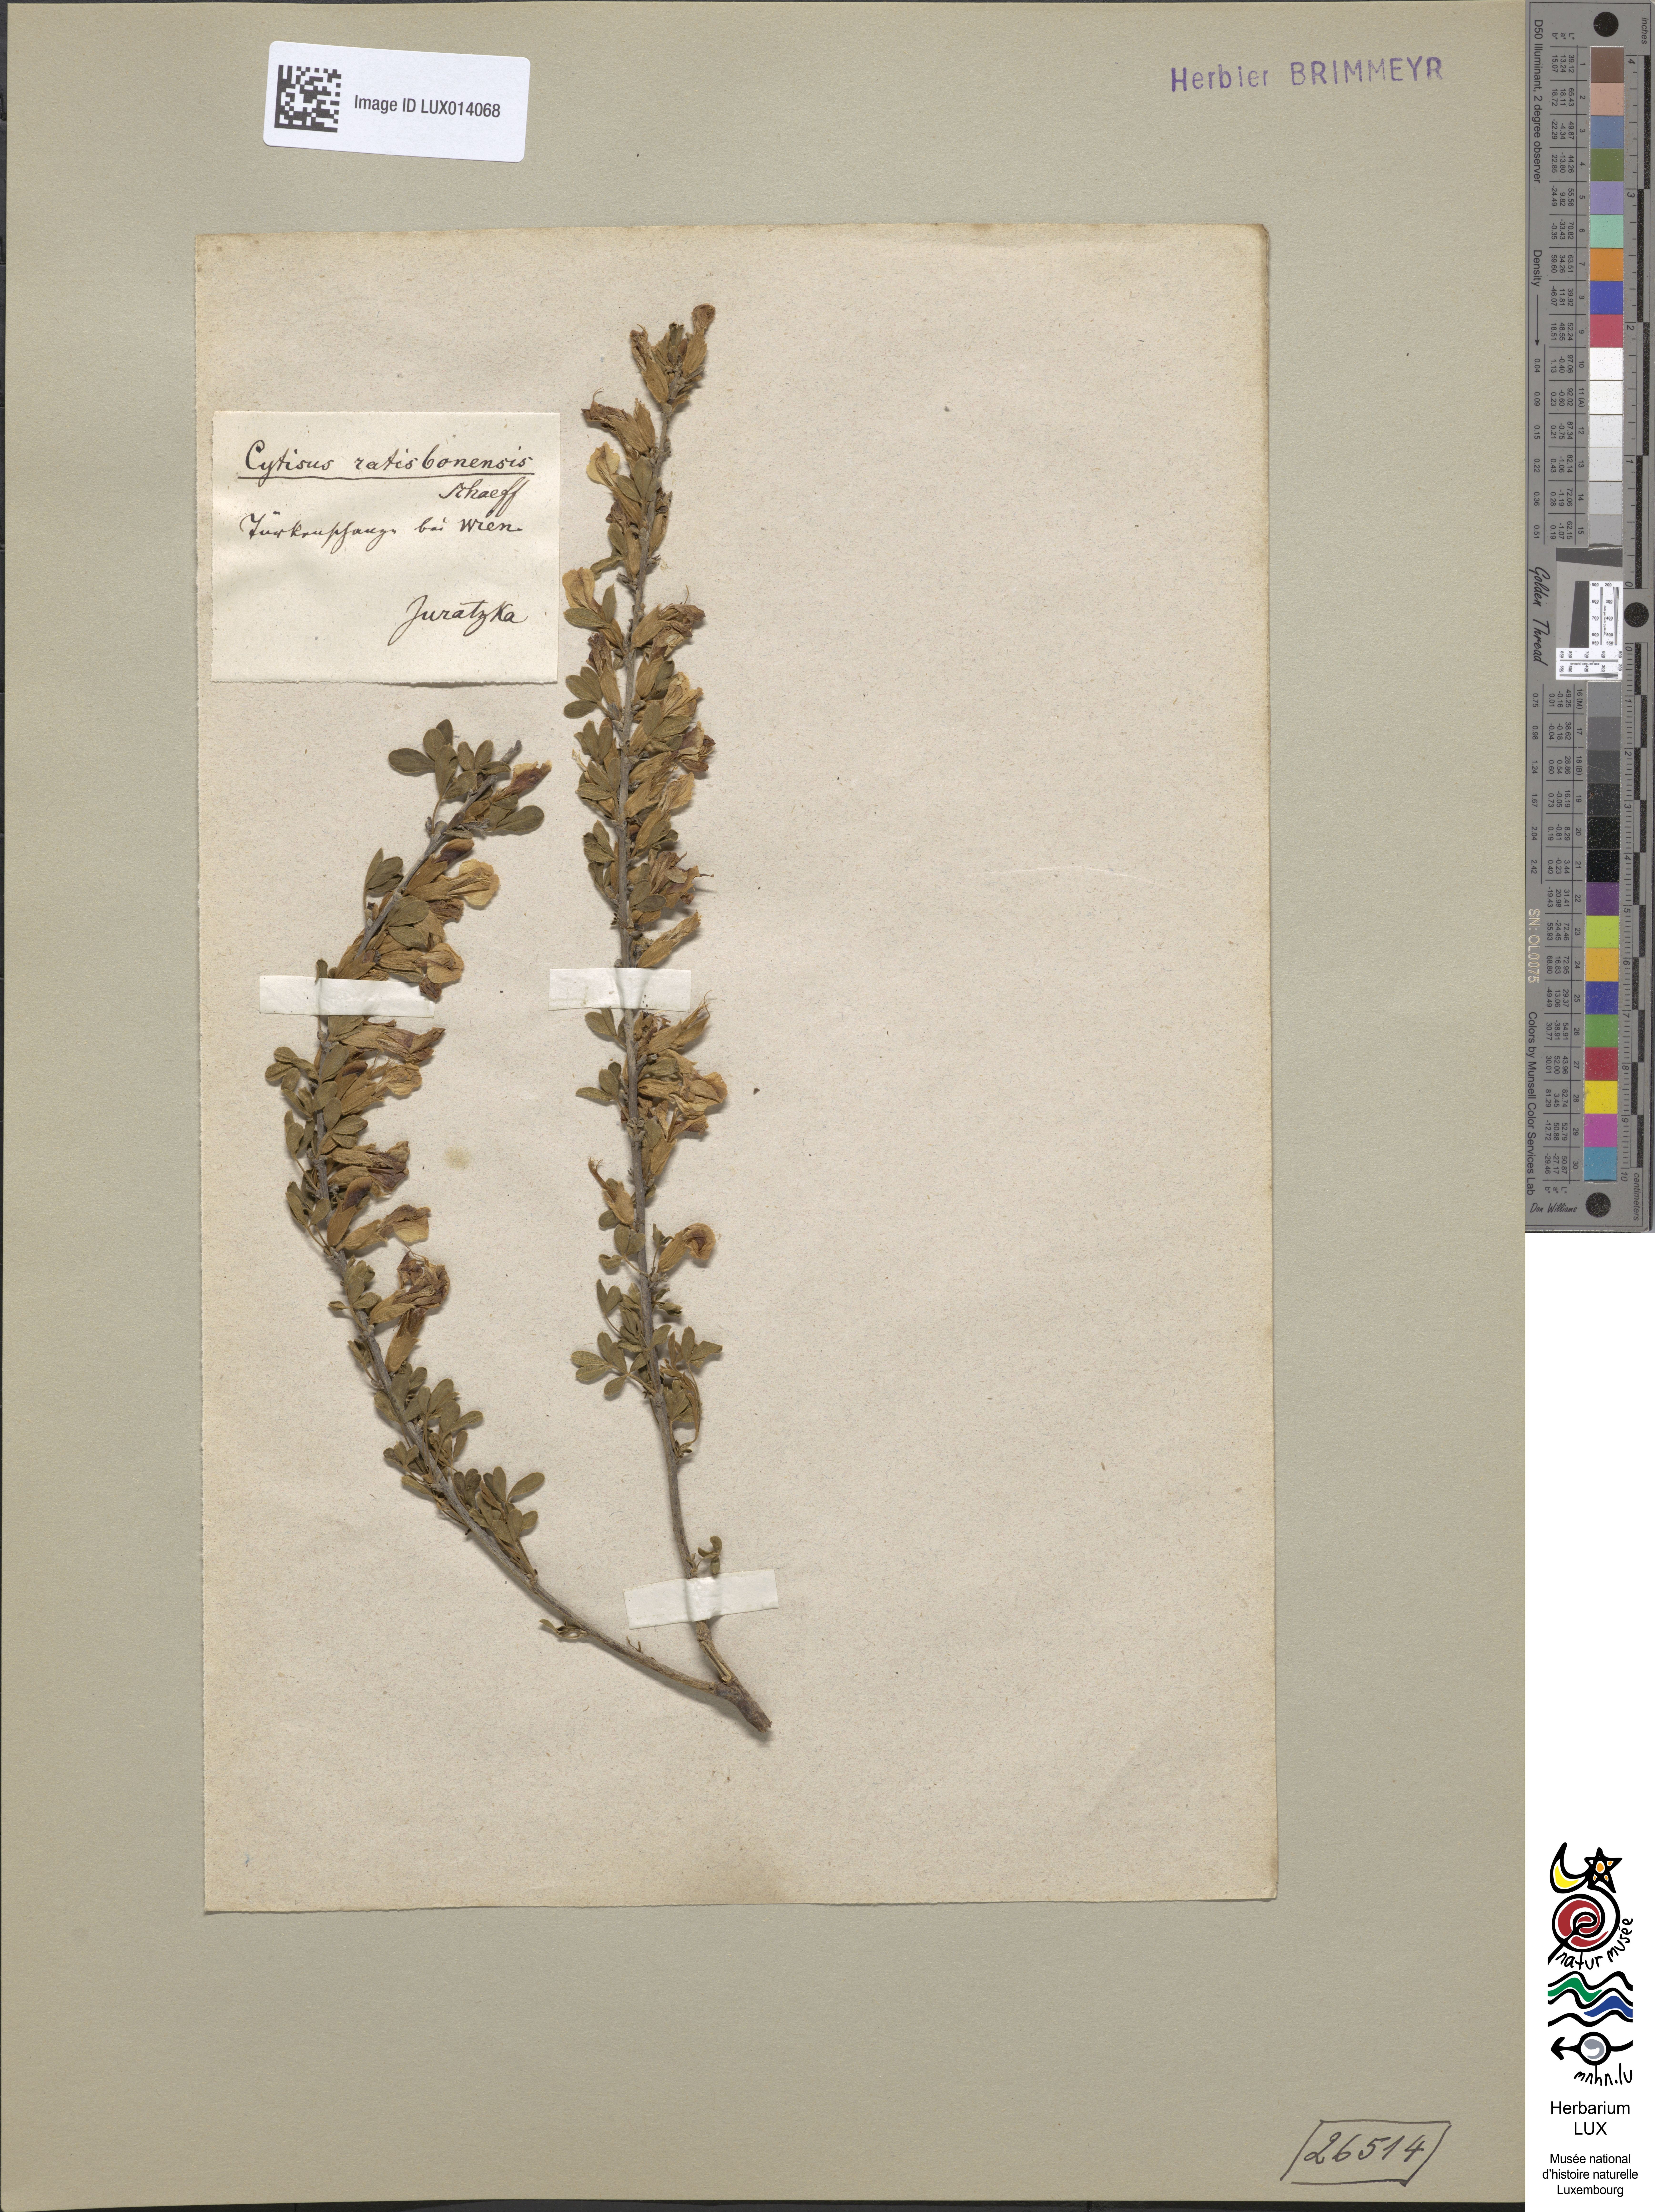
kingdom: Plantae
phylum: Tracheophyta
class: Magnoliopsida
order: Fabales
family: Fabaceae
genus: Chamaecytisus
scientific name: Chamaecytisus ratisbonensis
